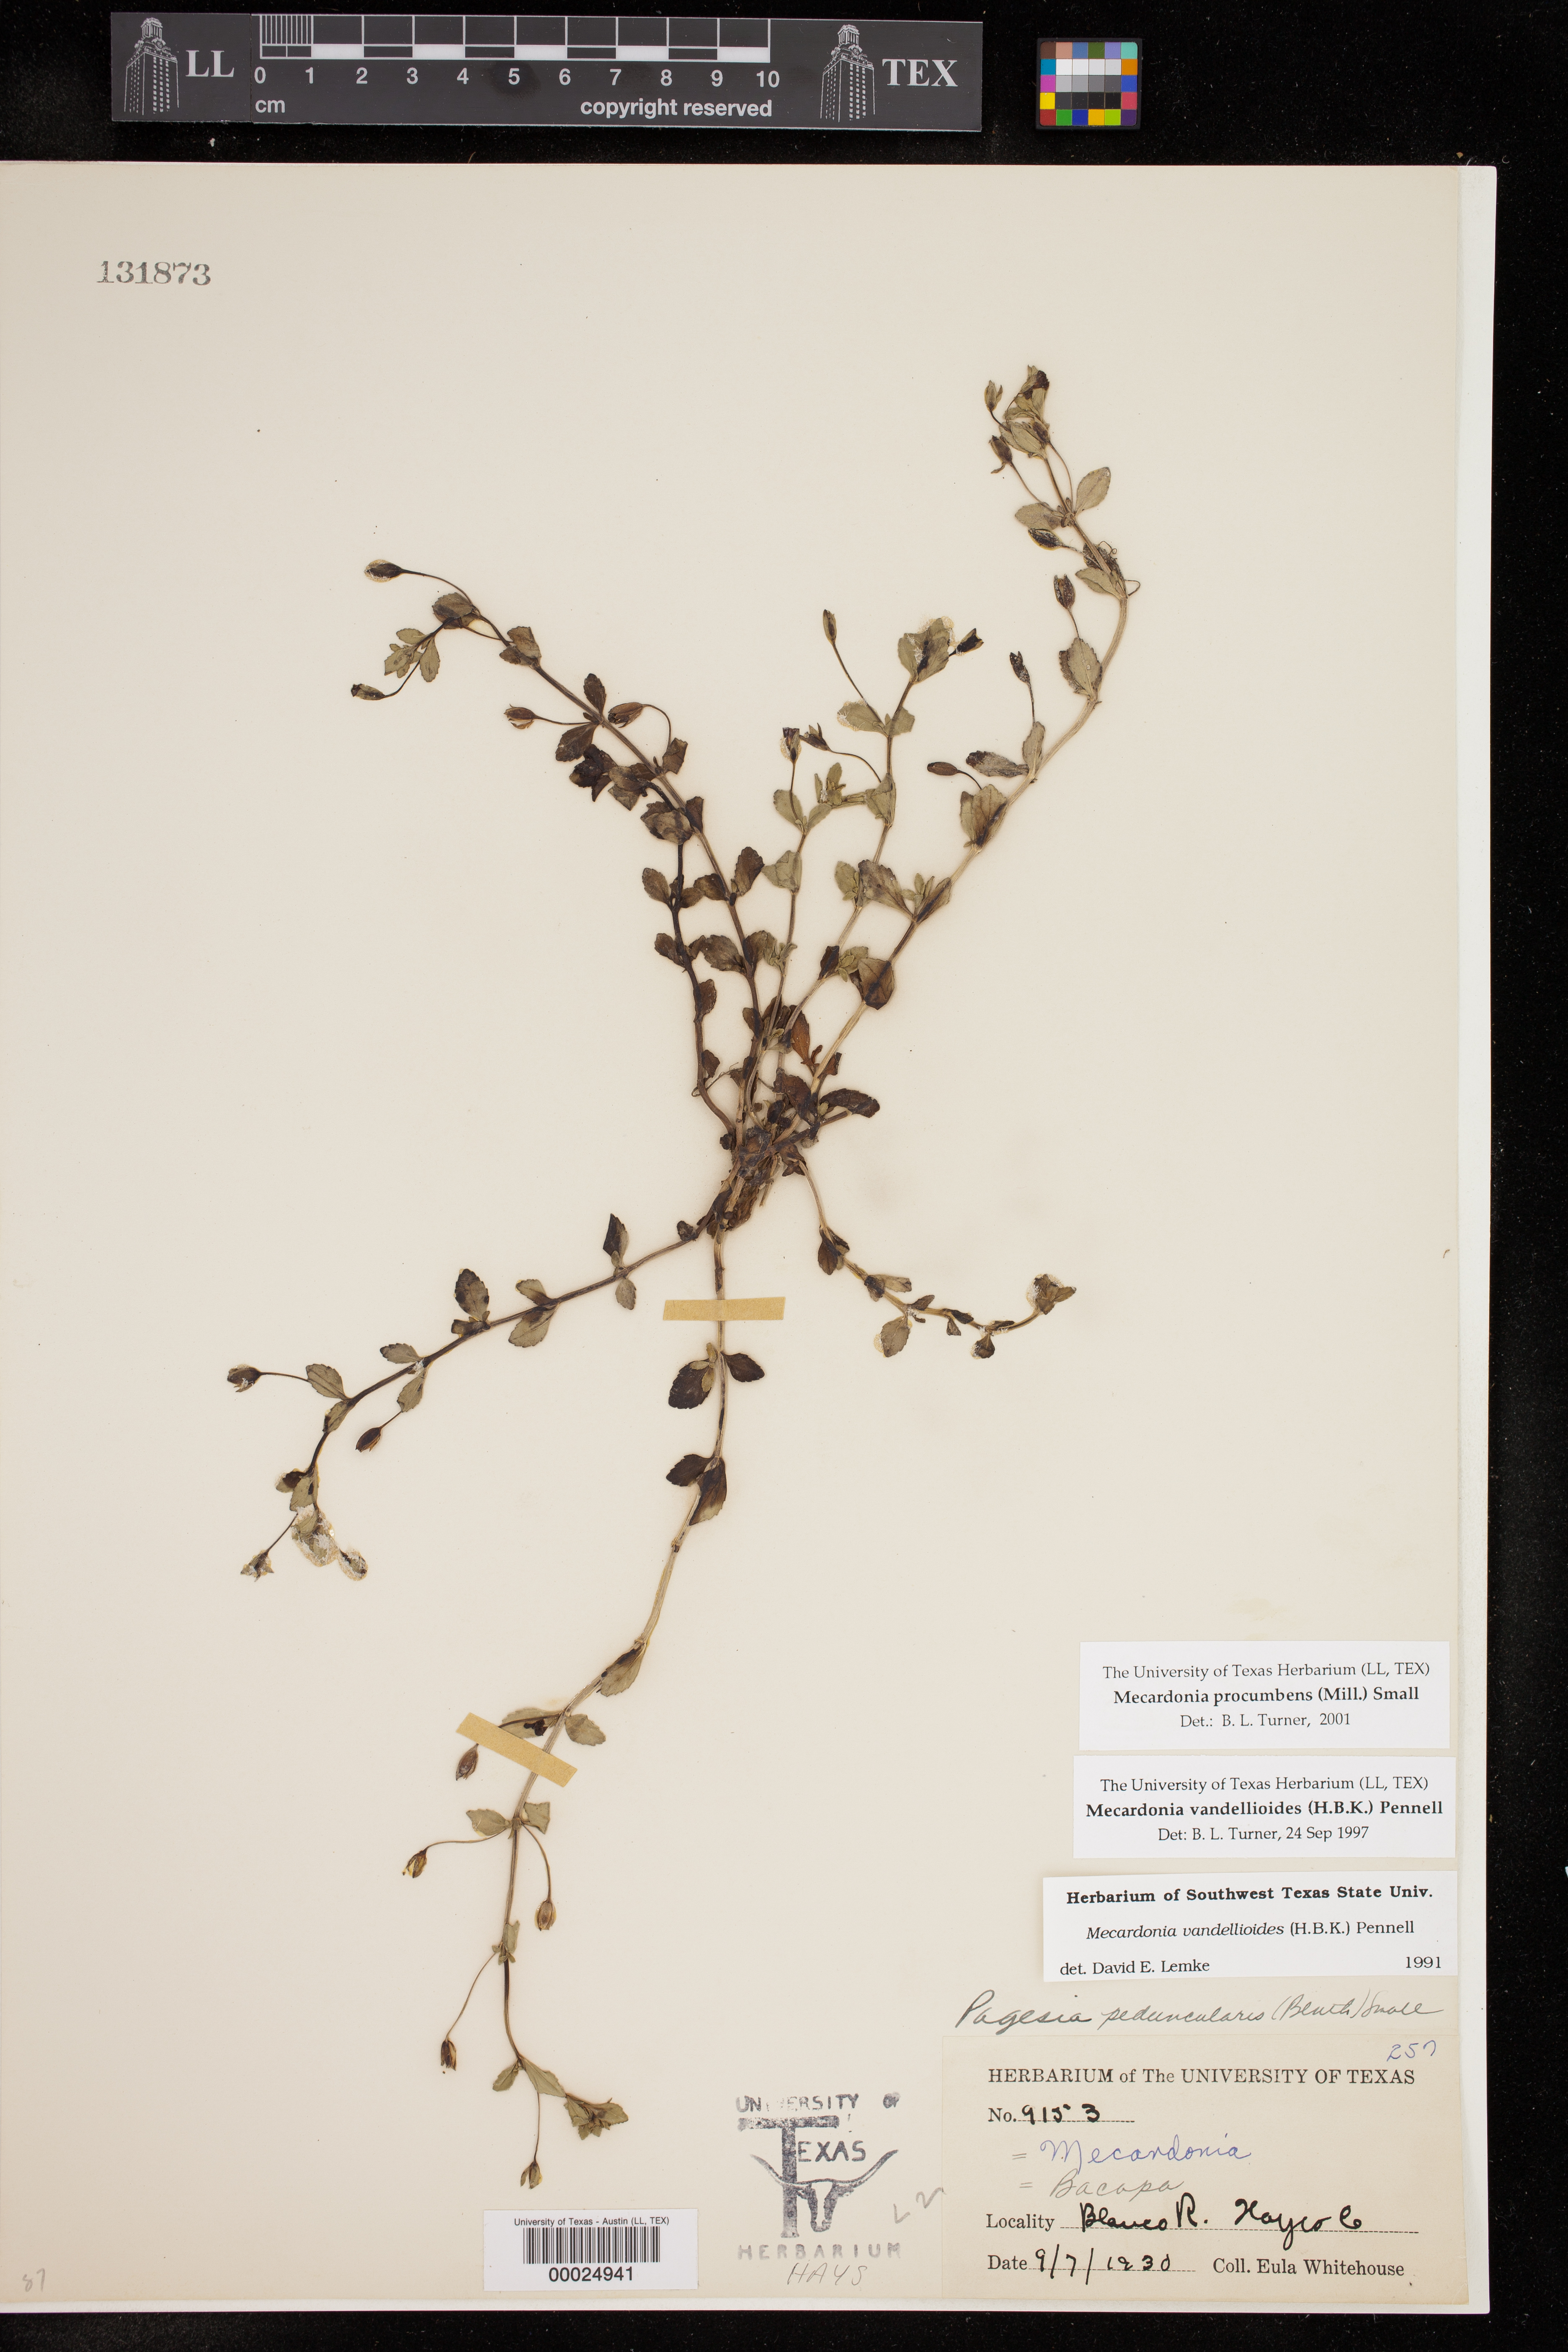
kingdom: Plantae
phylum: Tracheophyta
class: Magnoliopsida
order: Lamiales
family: Plantaginaceae
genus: Mecardonia
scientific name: Mecardonia procumbens
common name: Baby jump-up
